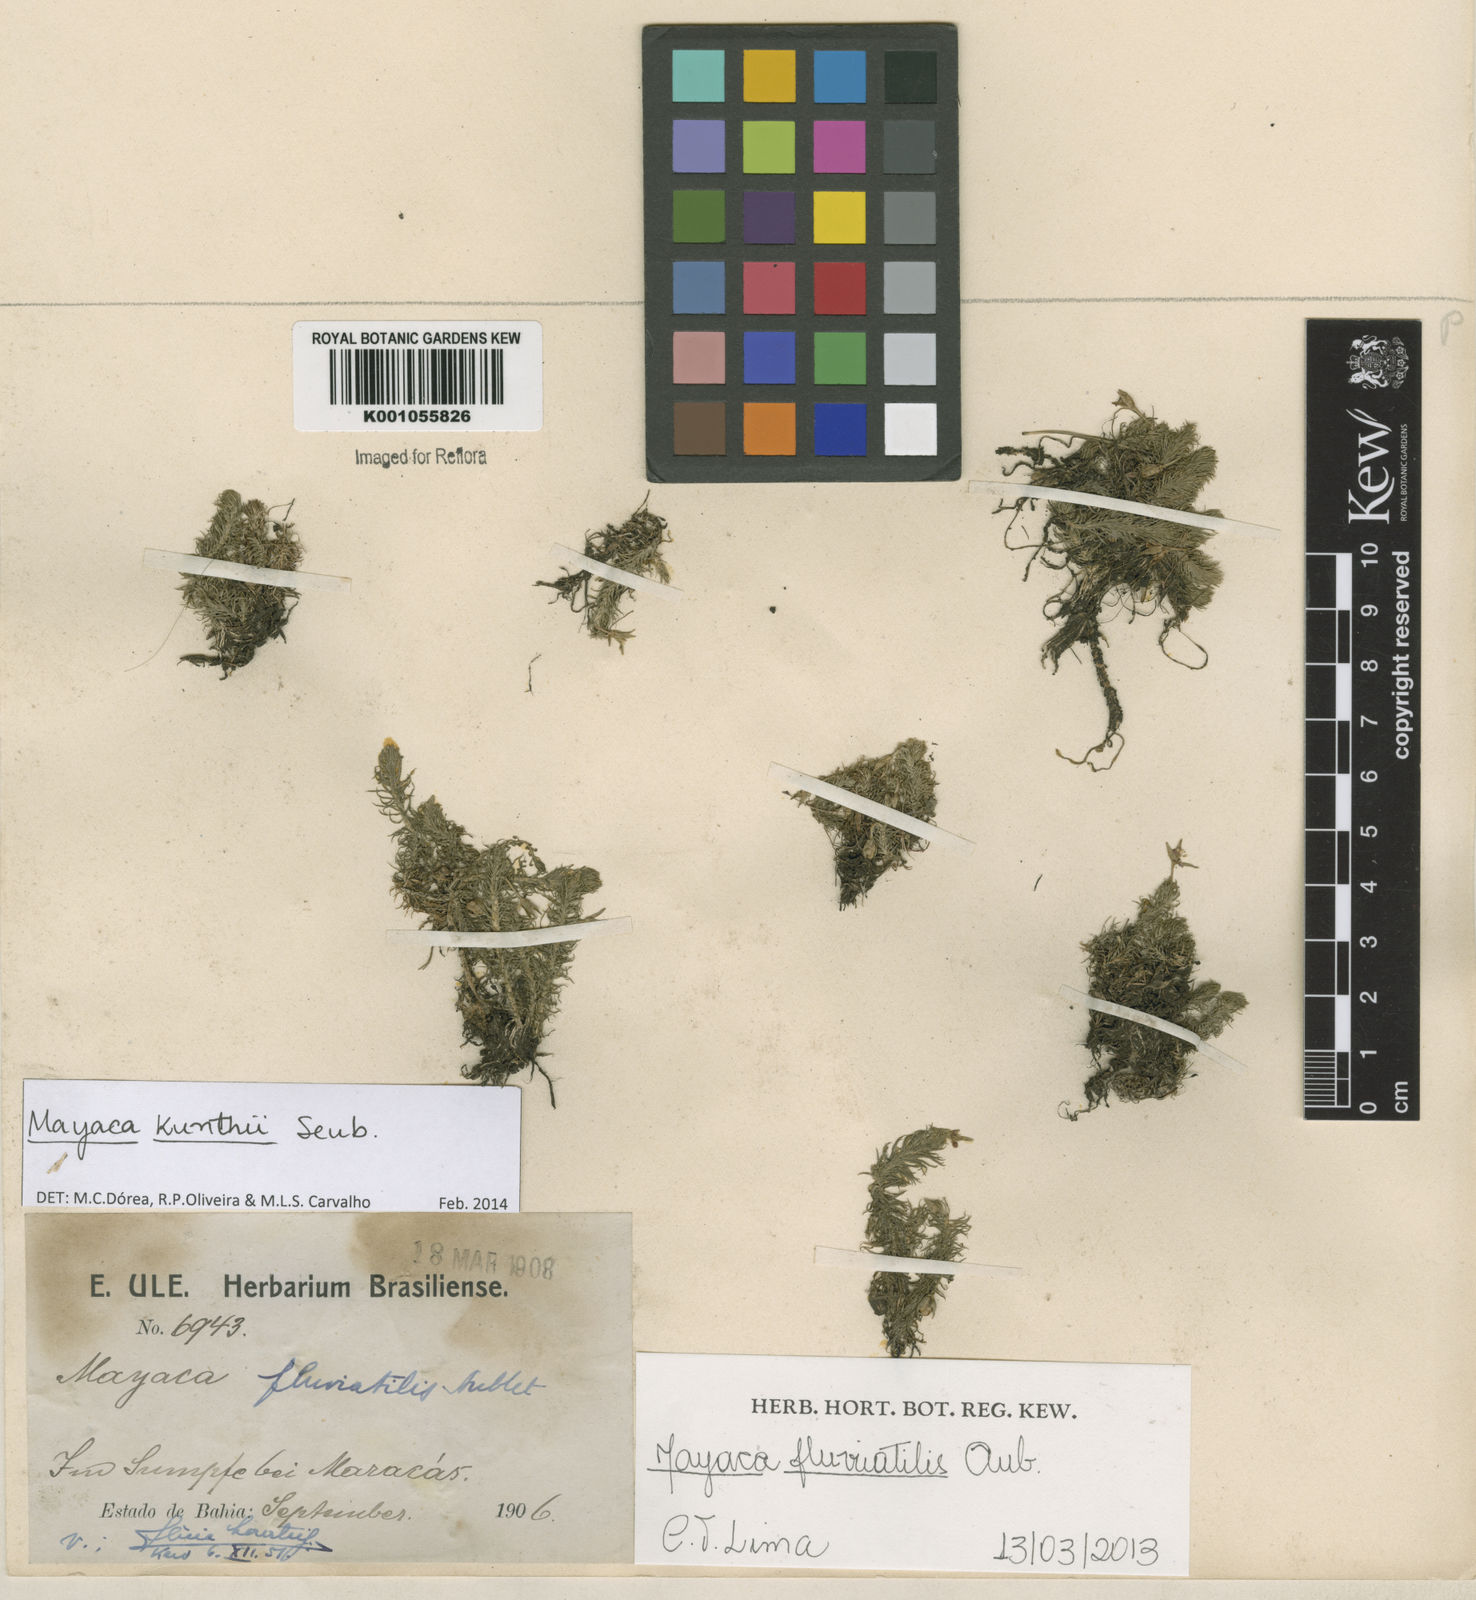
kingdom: Plantae
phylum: Tracheophyta
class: Liliopsida
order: Poales
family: Mayacaceae
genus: Mayaca
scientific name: Mayaca kunthii
